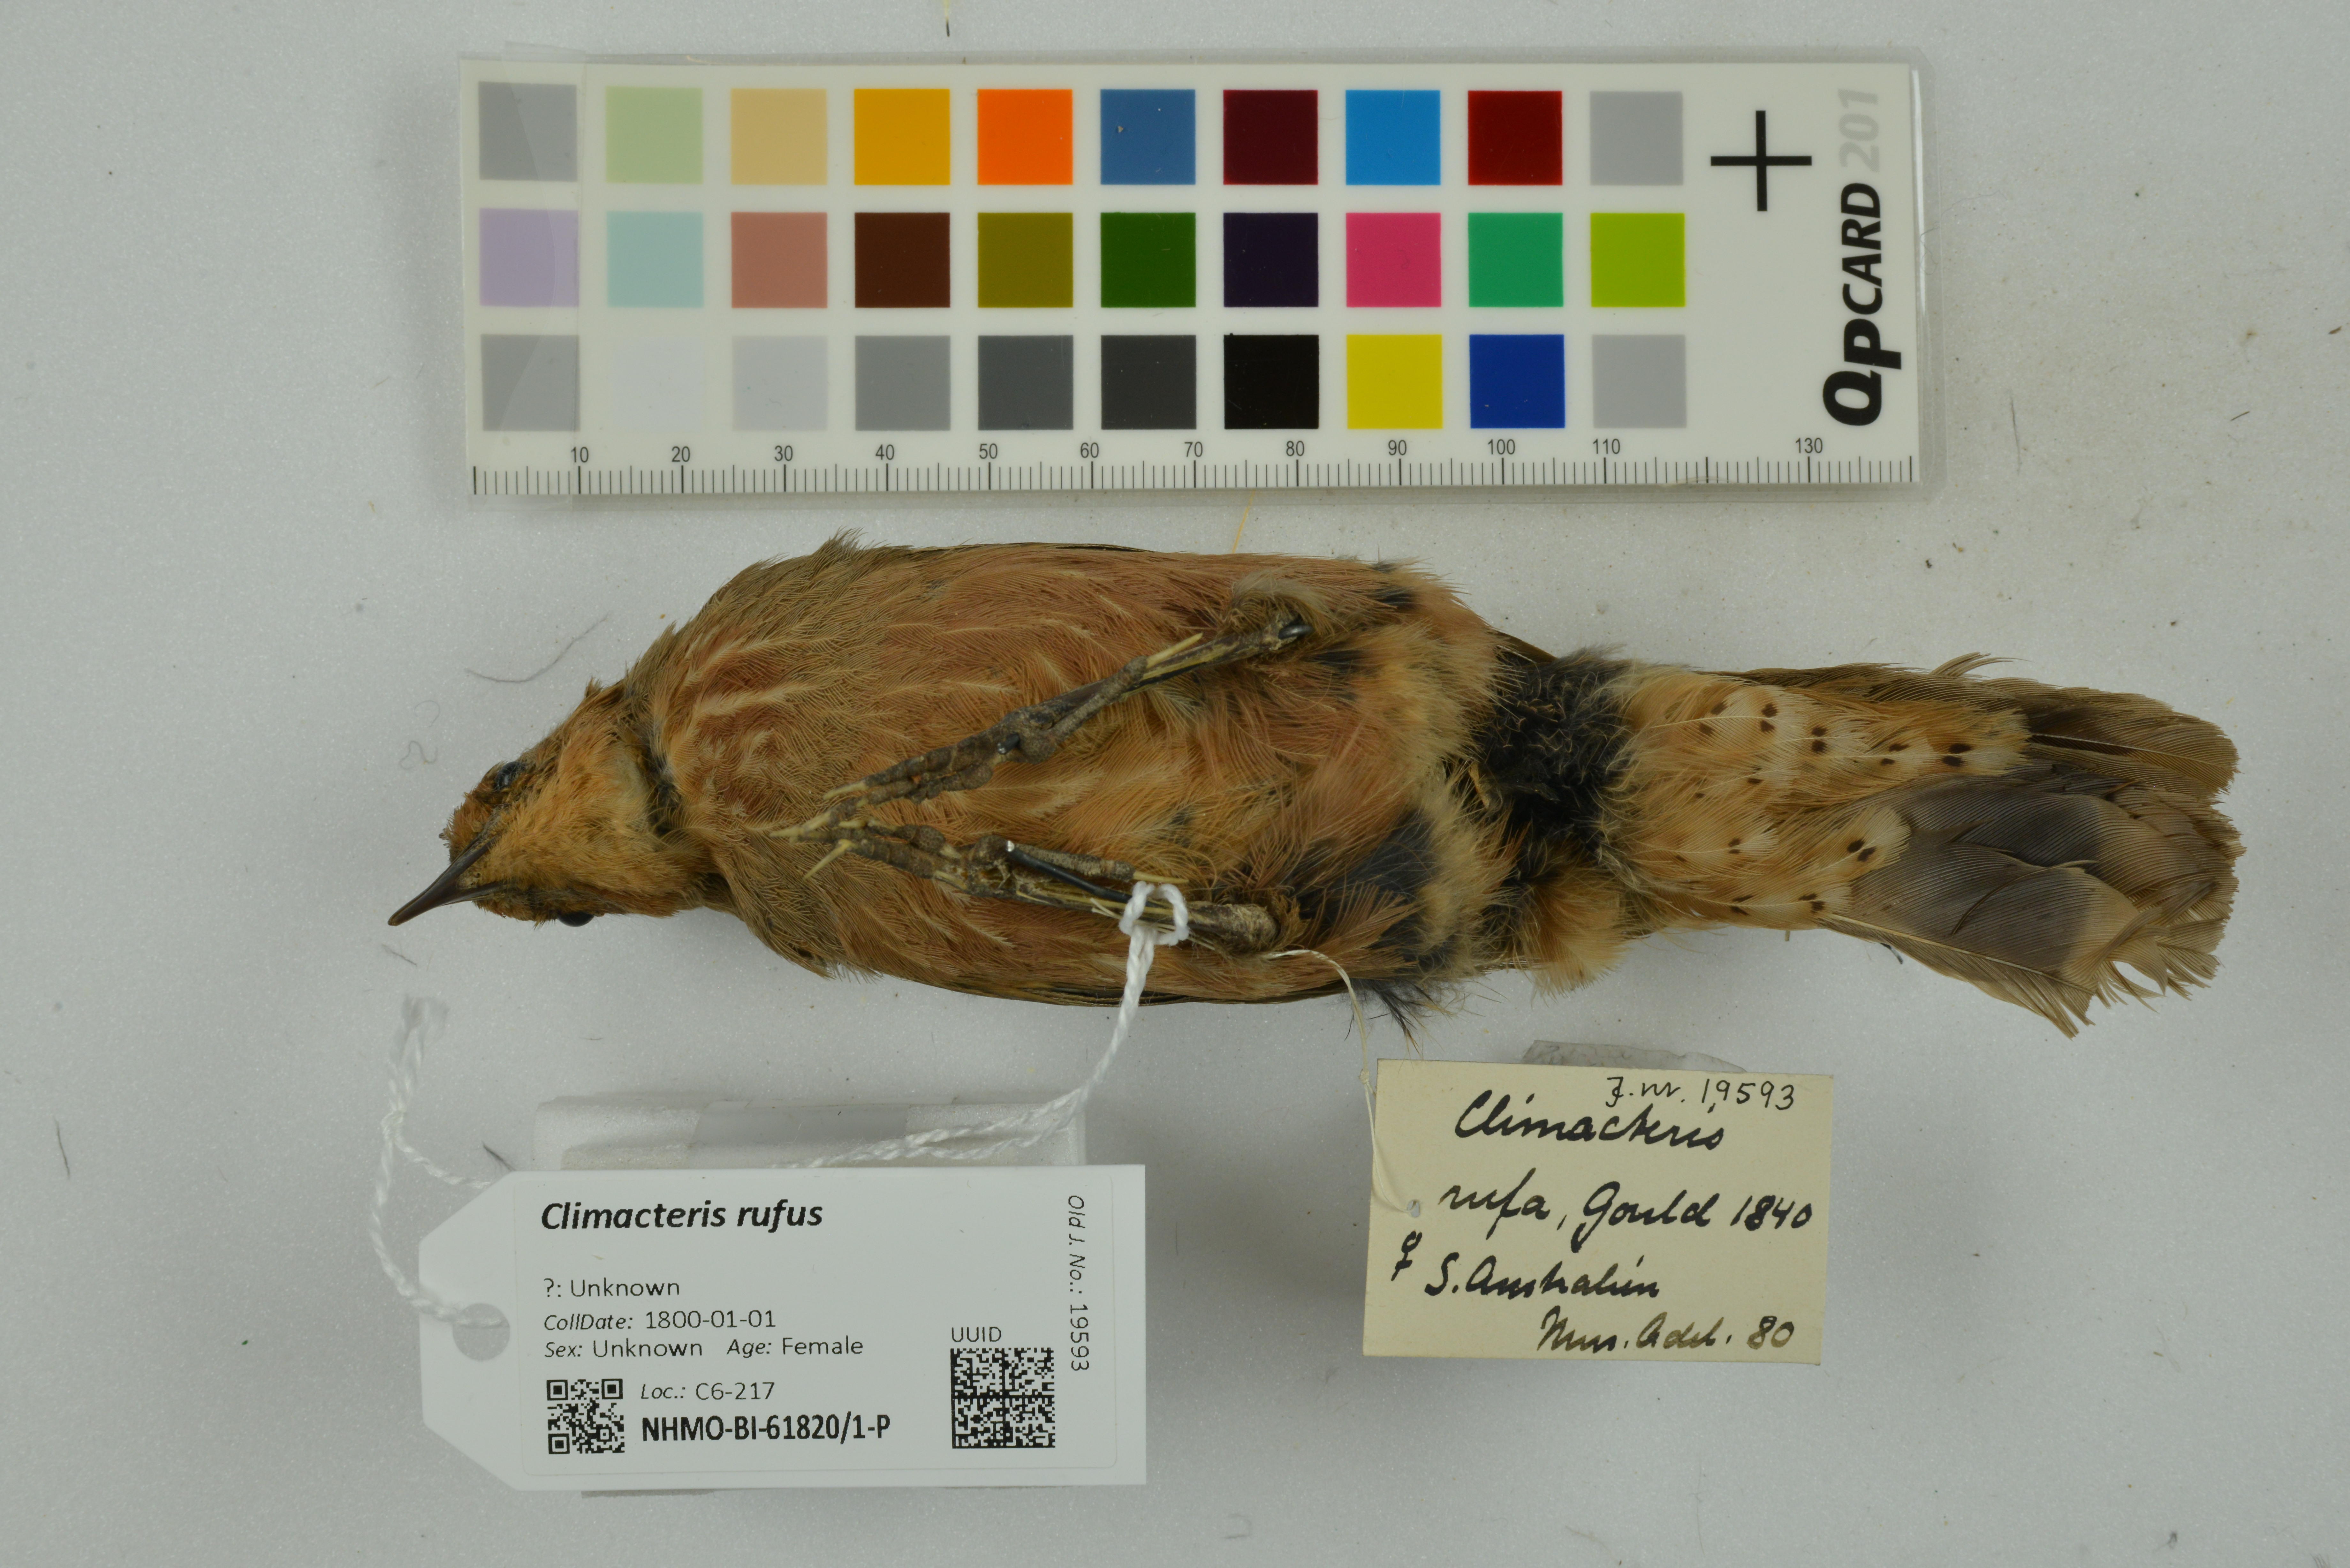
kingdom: Animalia
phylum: Chordata
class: Aves
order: Passeriformes
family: Climacteridae
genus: Climacteris
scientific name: Climacteris rufus
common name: Rufous treecreeper
